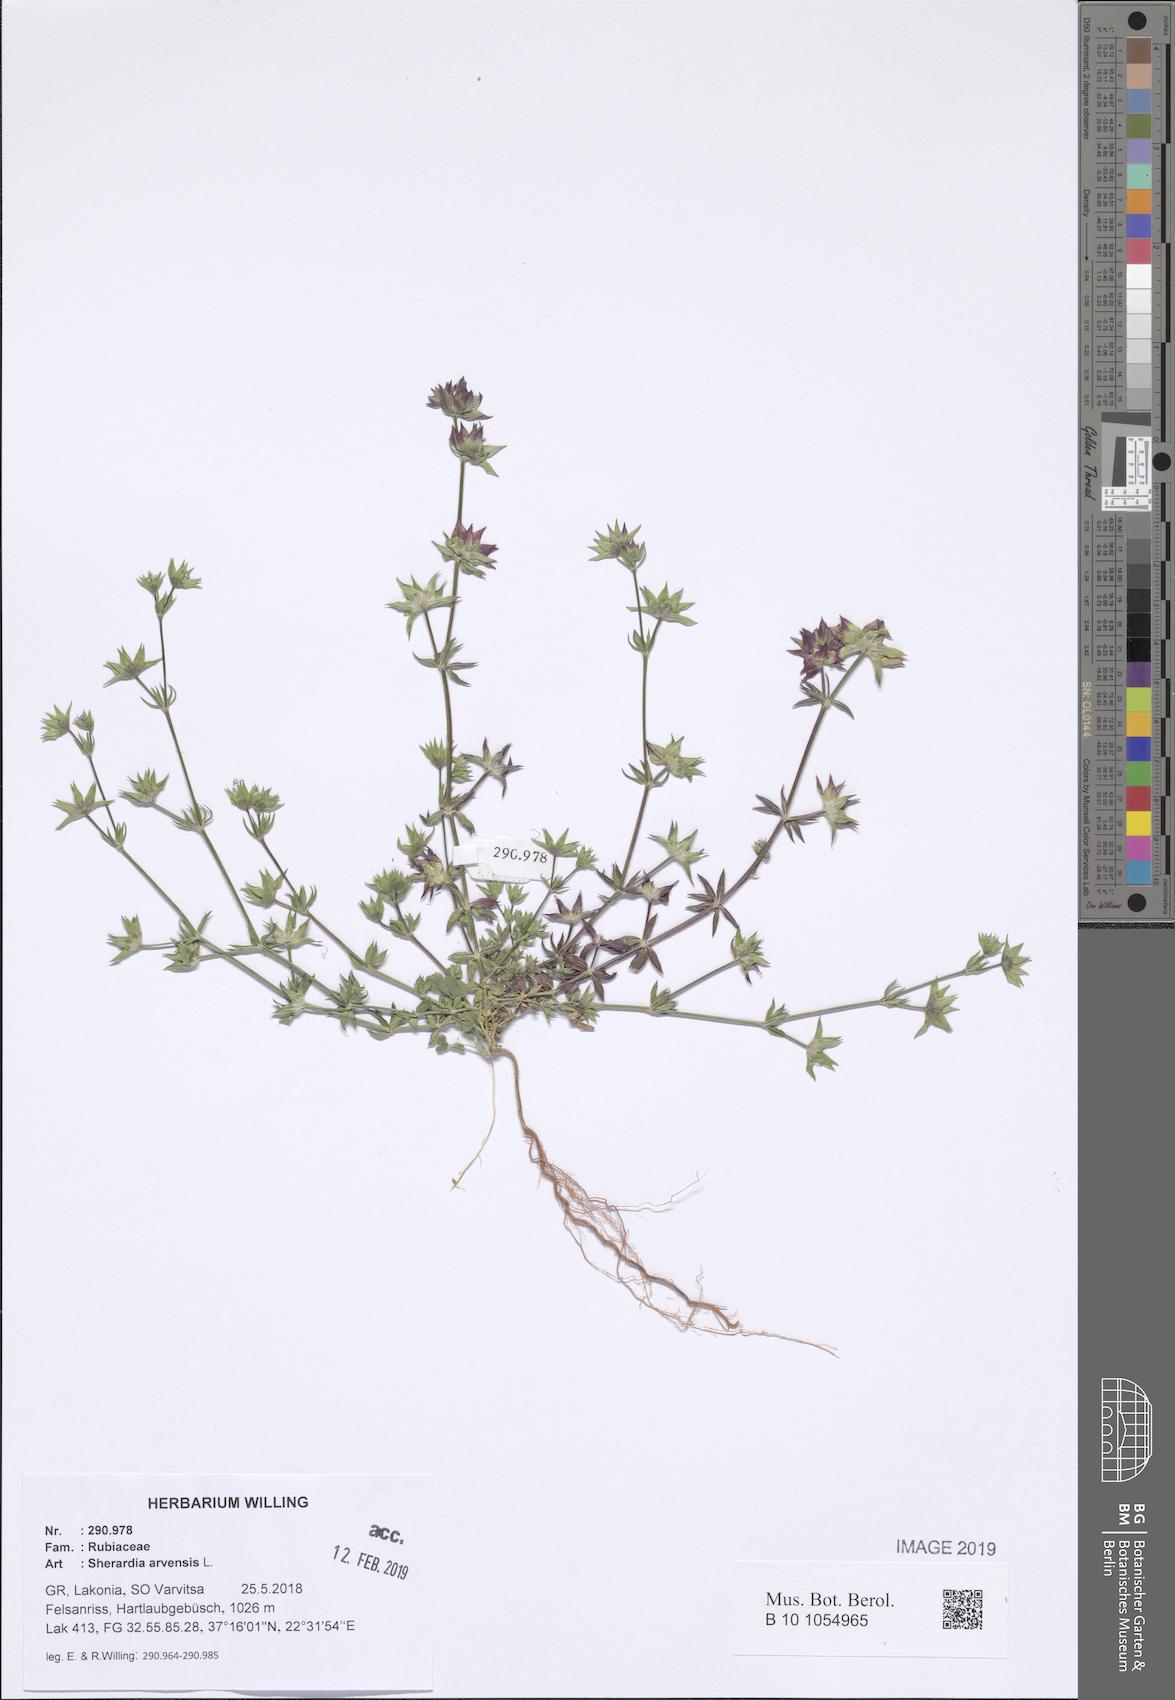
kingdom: Plantae
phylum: Tracheophyta
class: Magnoliopsida
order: Gentianales
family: Rubiaceae
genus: Sherardia
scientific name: Sherardia arvensis
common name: Field madder
